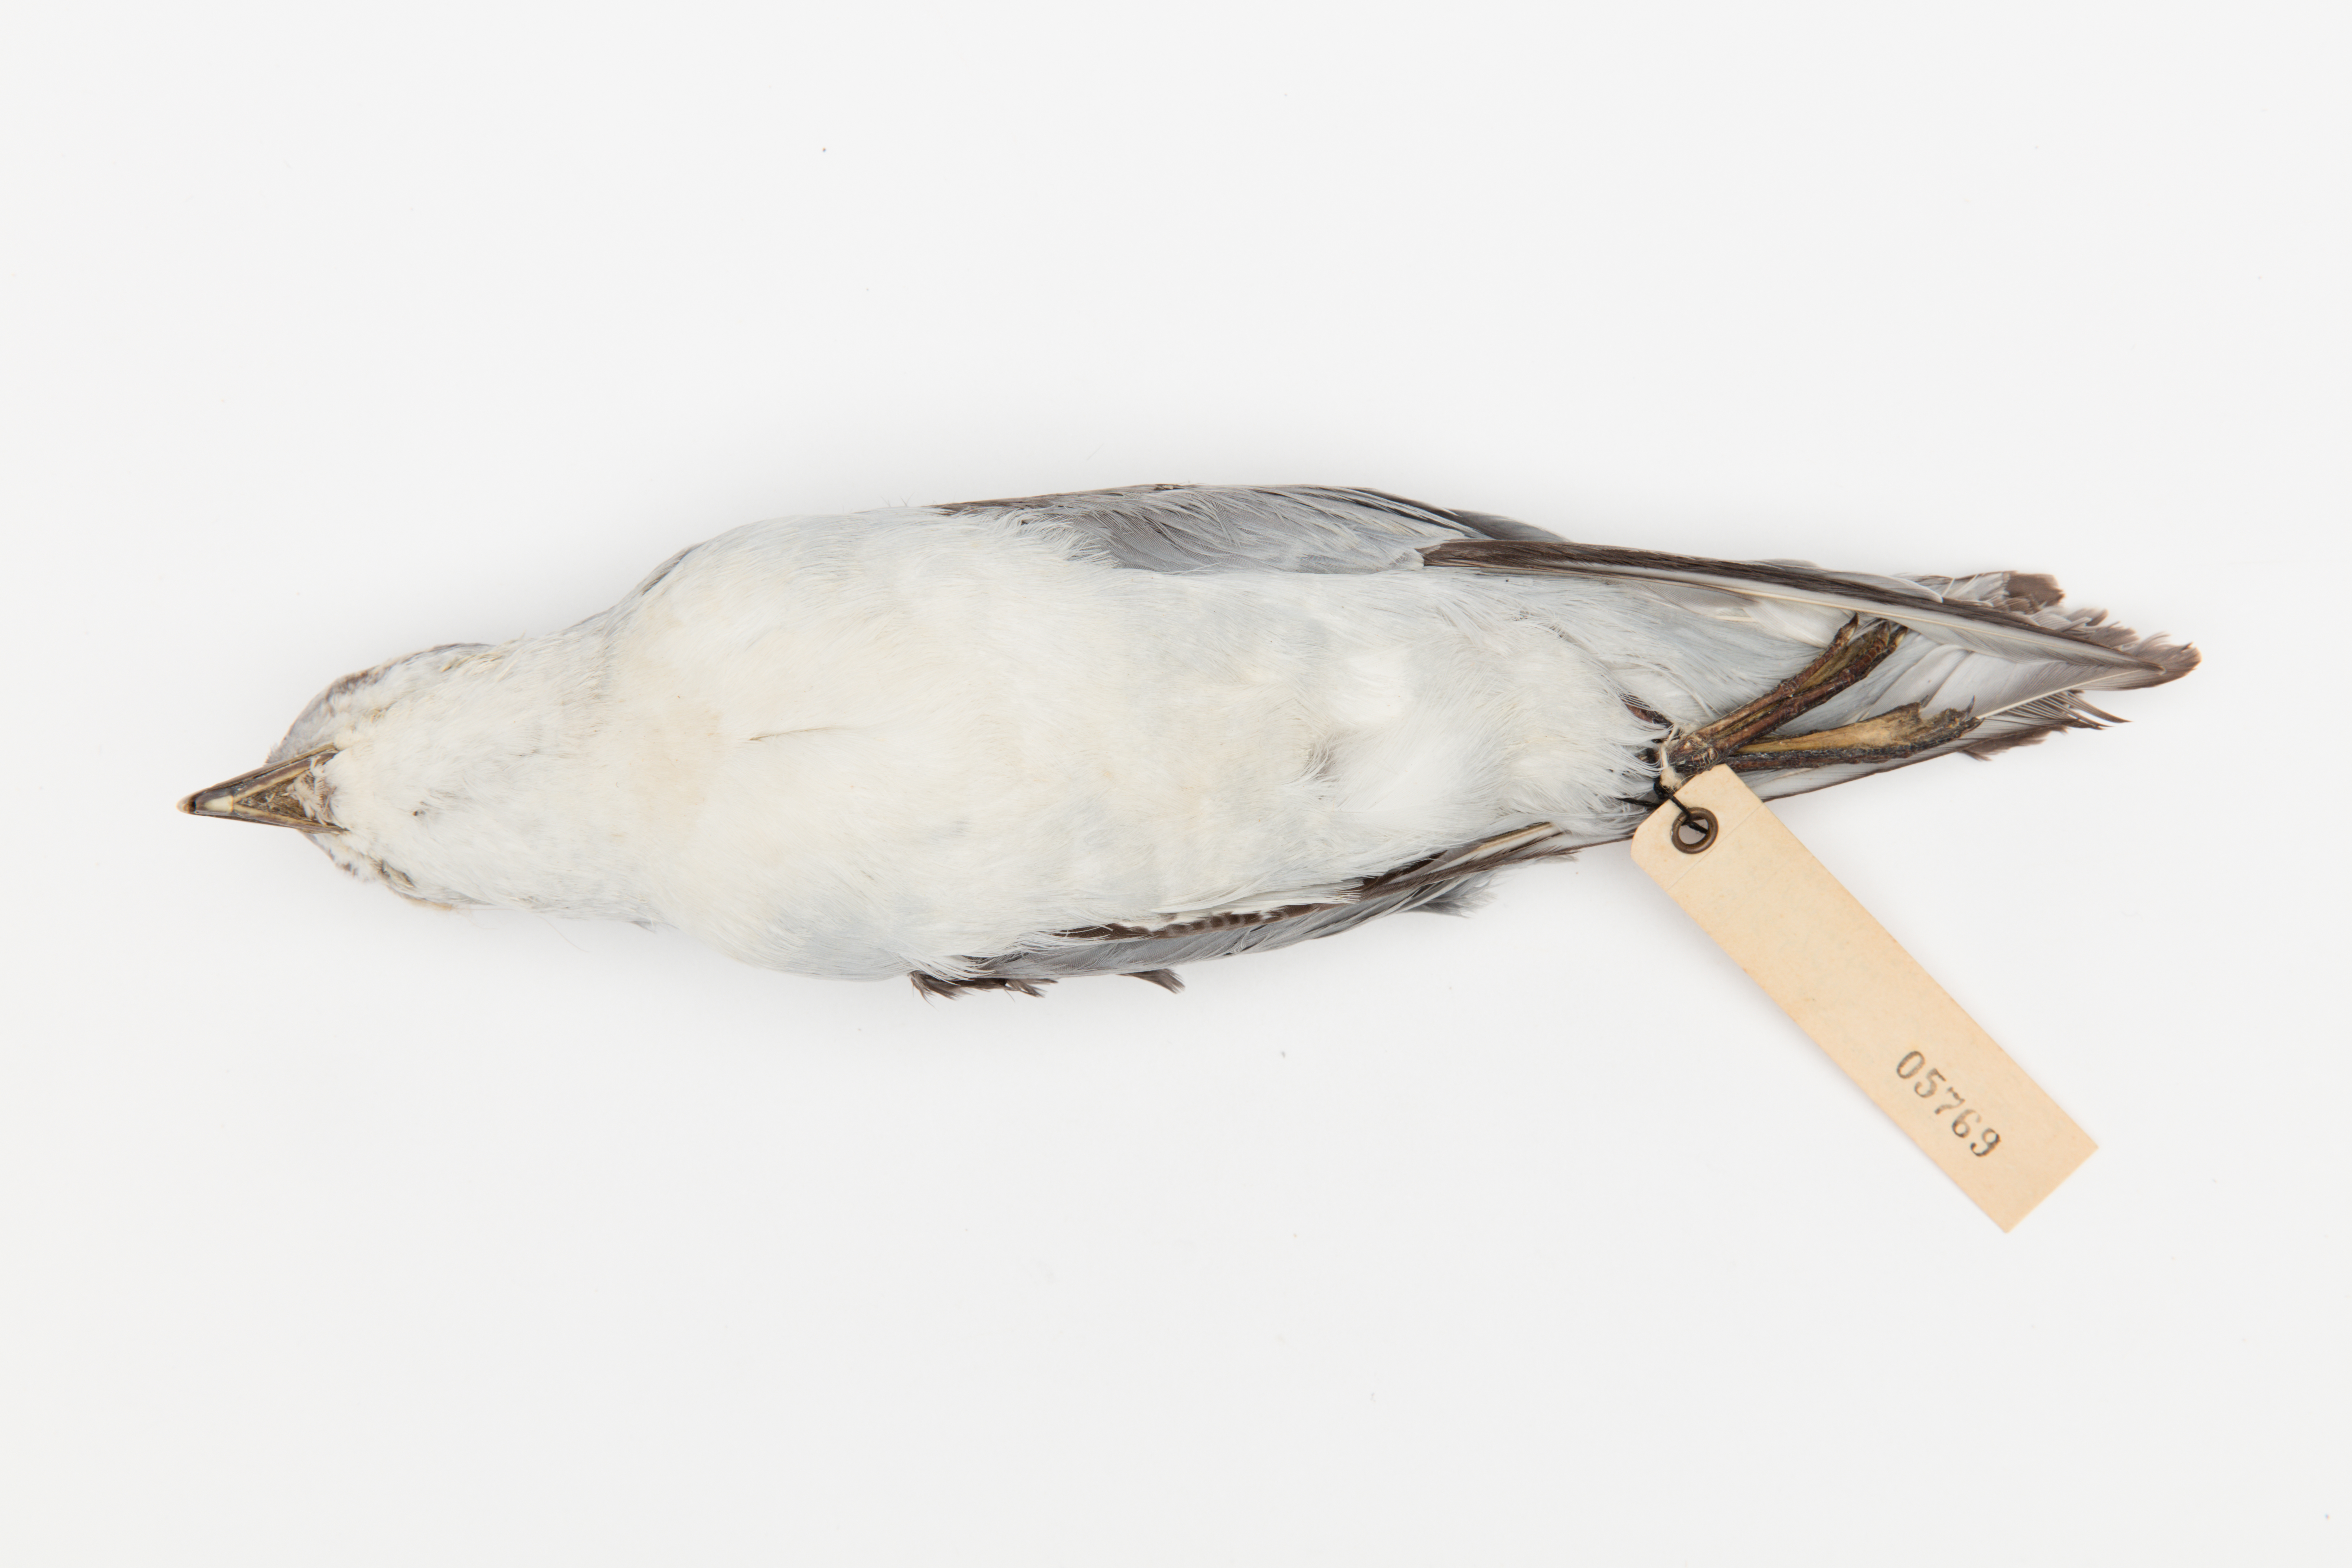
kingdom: Animalia
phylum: Chordata
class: Aves
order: Procellariiformes
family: Procellariidae
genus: Pachyptila
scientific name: Pachyptila turtur
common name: Fairy prion
